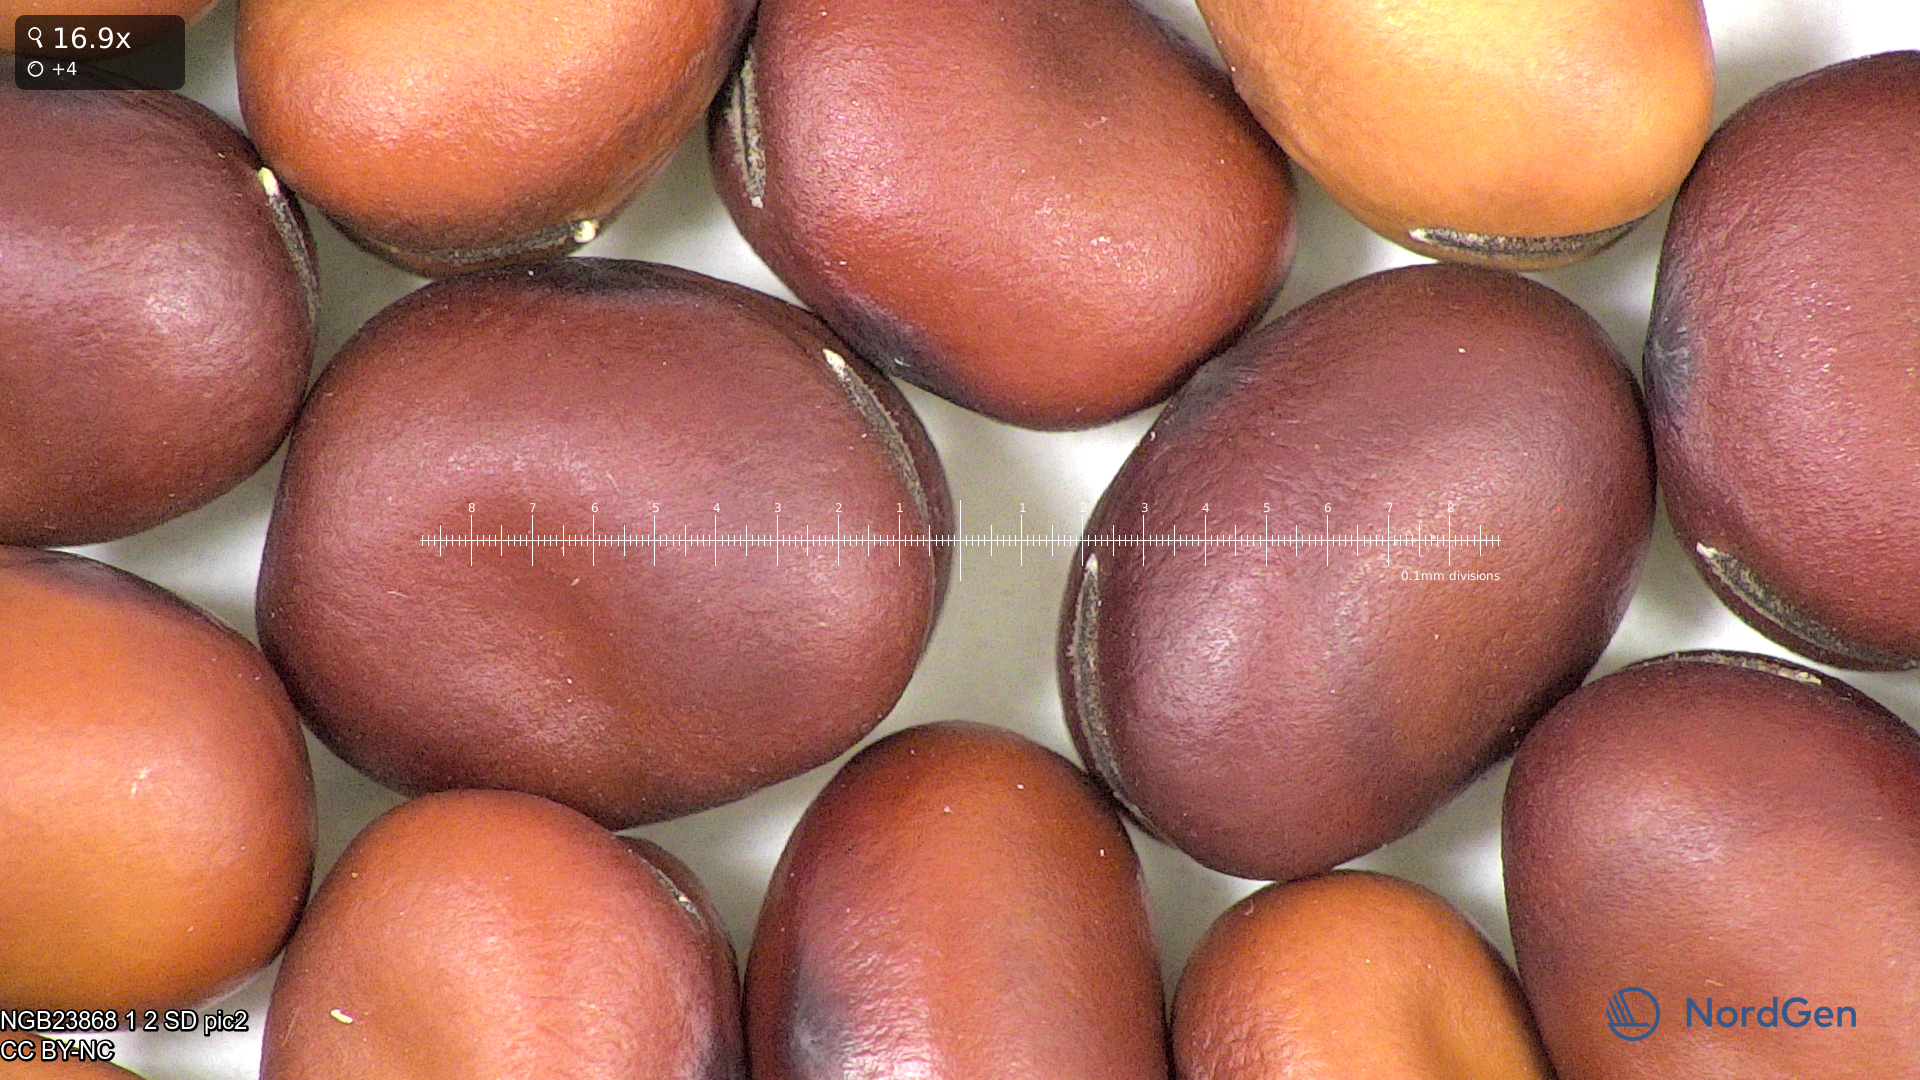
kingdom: Plantae
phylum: Tracheophyta
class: Magnoliopsida
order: Fabales
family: Fabaceae
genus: Vicia
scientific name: Vicia faba
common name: Broad bean
